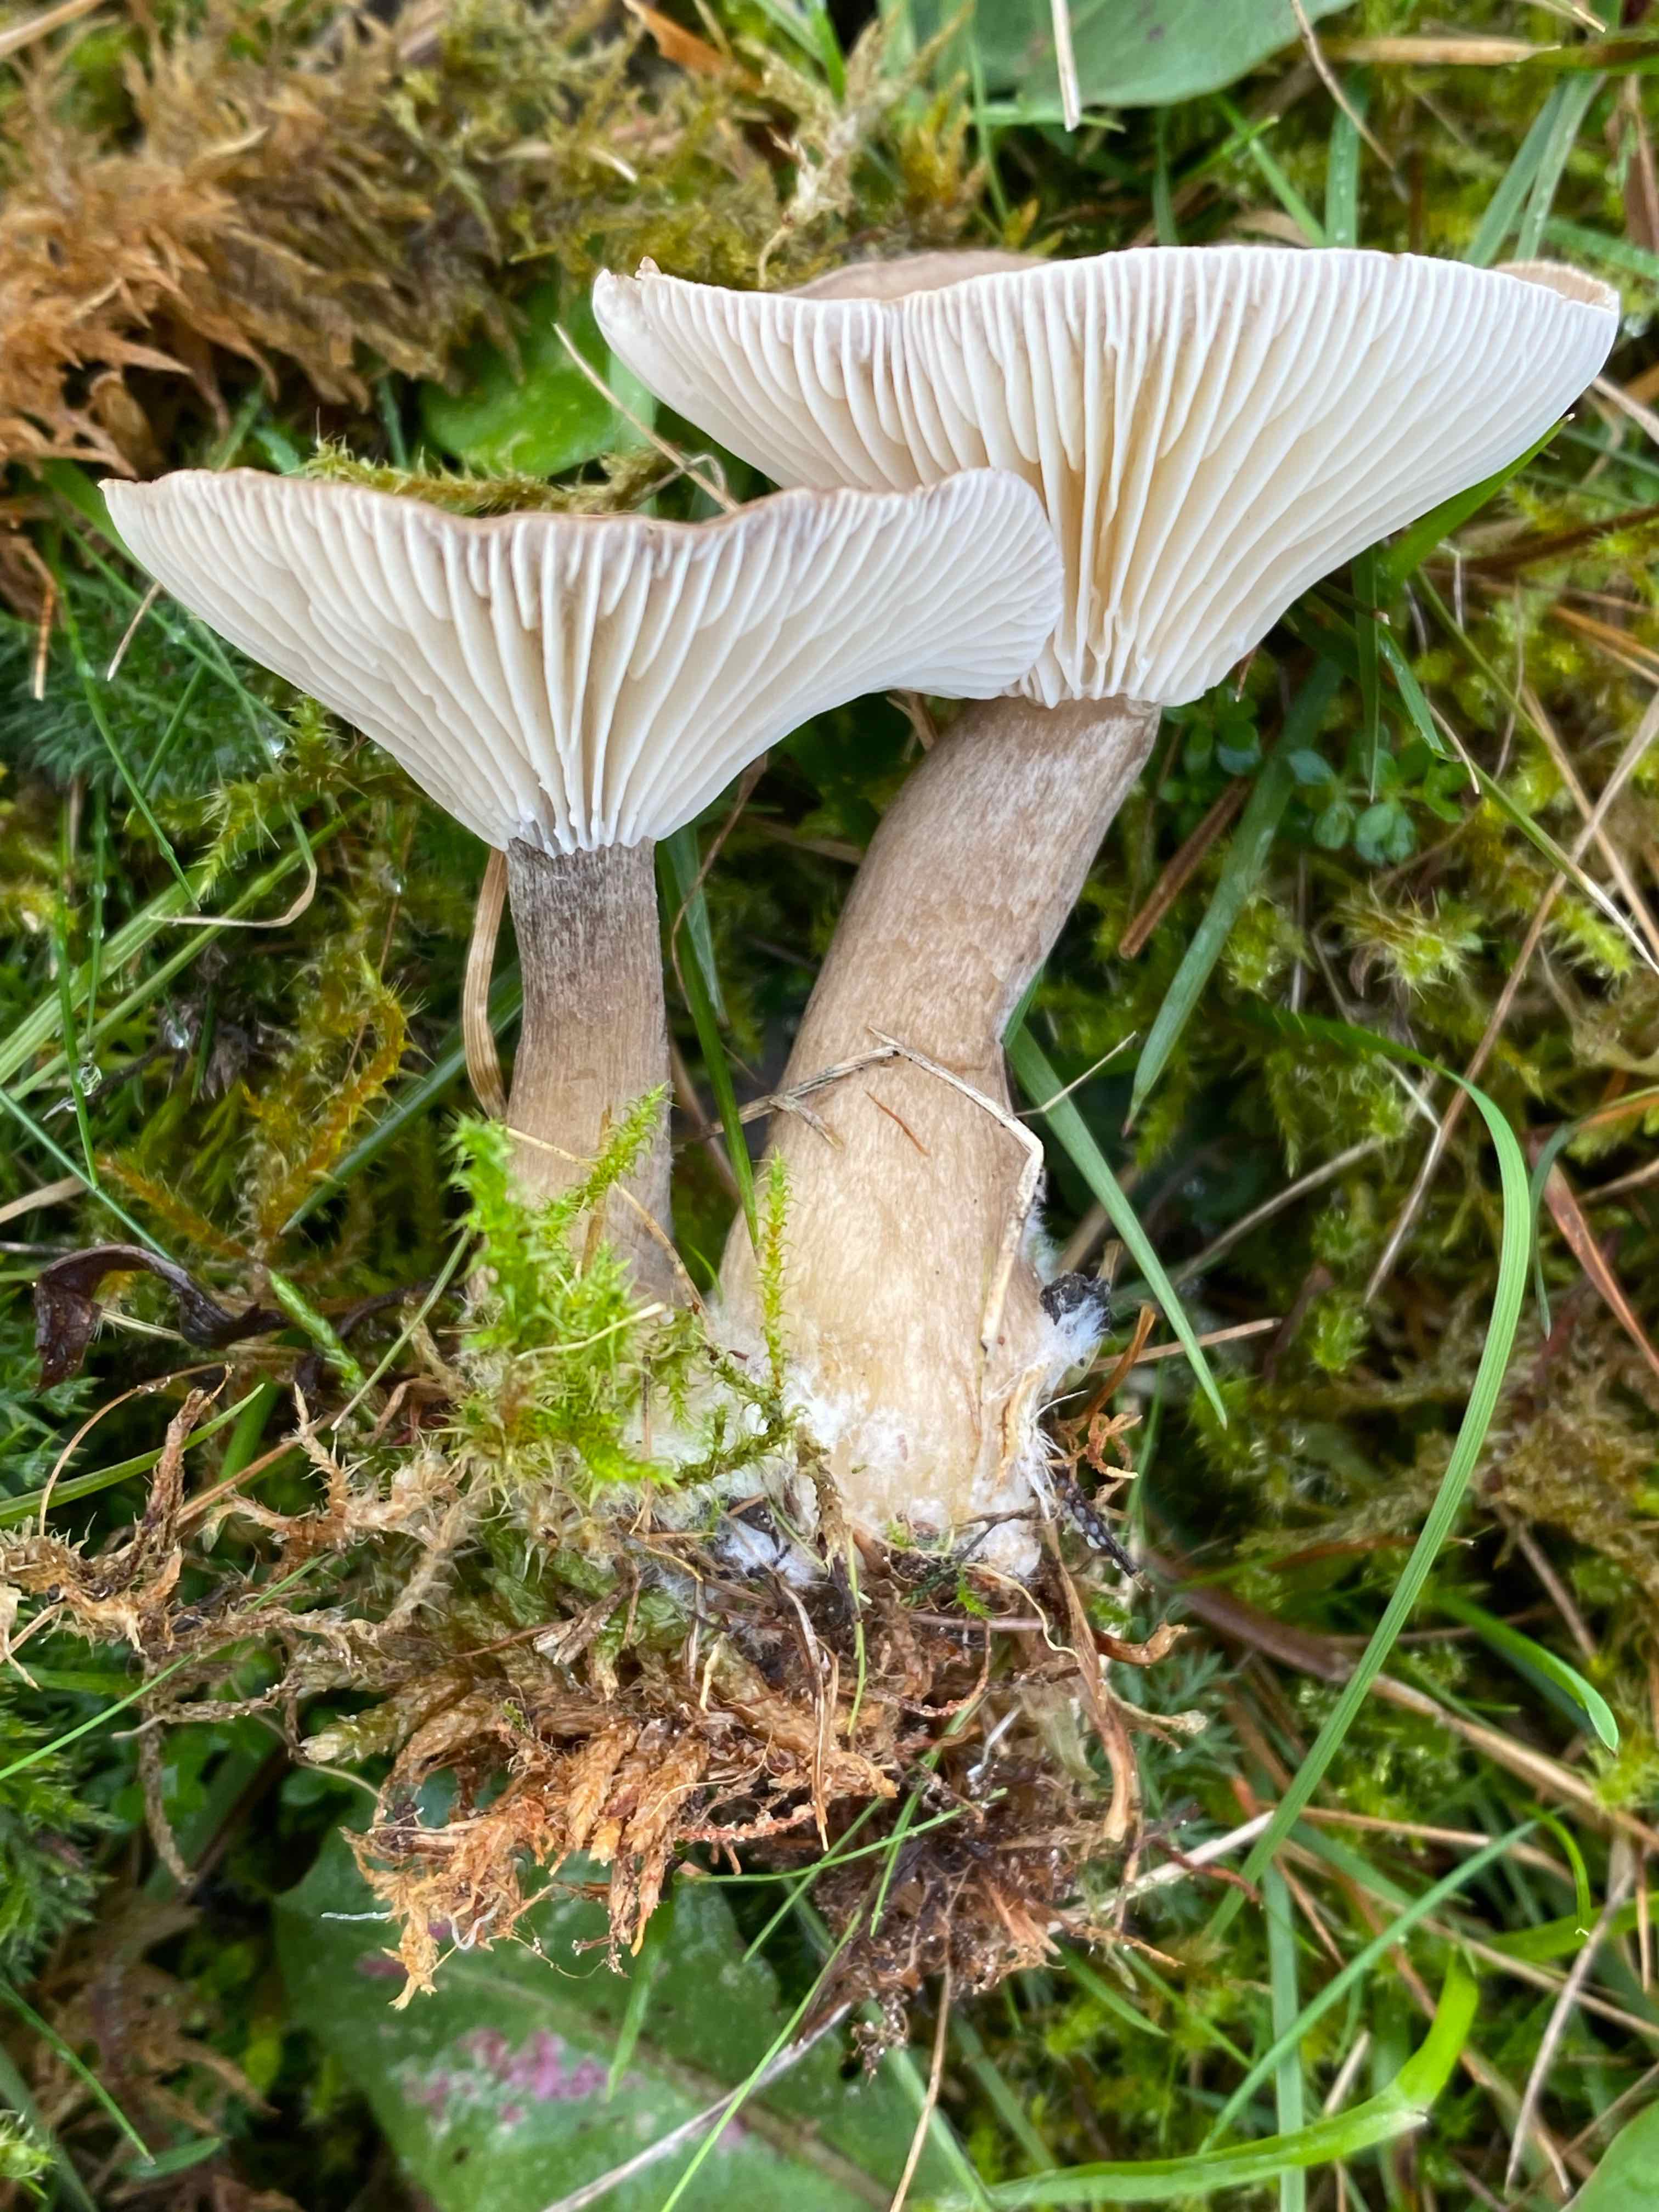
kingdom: Fungi
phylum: Basidiomycota
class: Agaricomycetes
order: Agaricales
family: Hygrophoraceae
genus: Ampulloclitocybe
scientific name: Ampulloclitocybe clavipes
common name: køllefod
